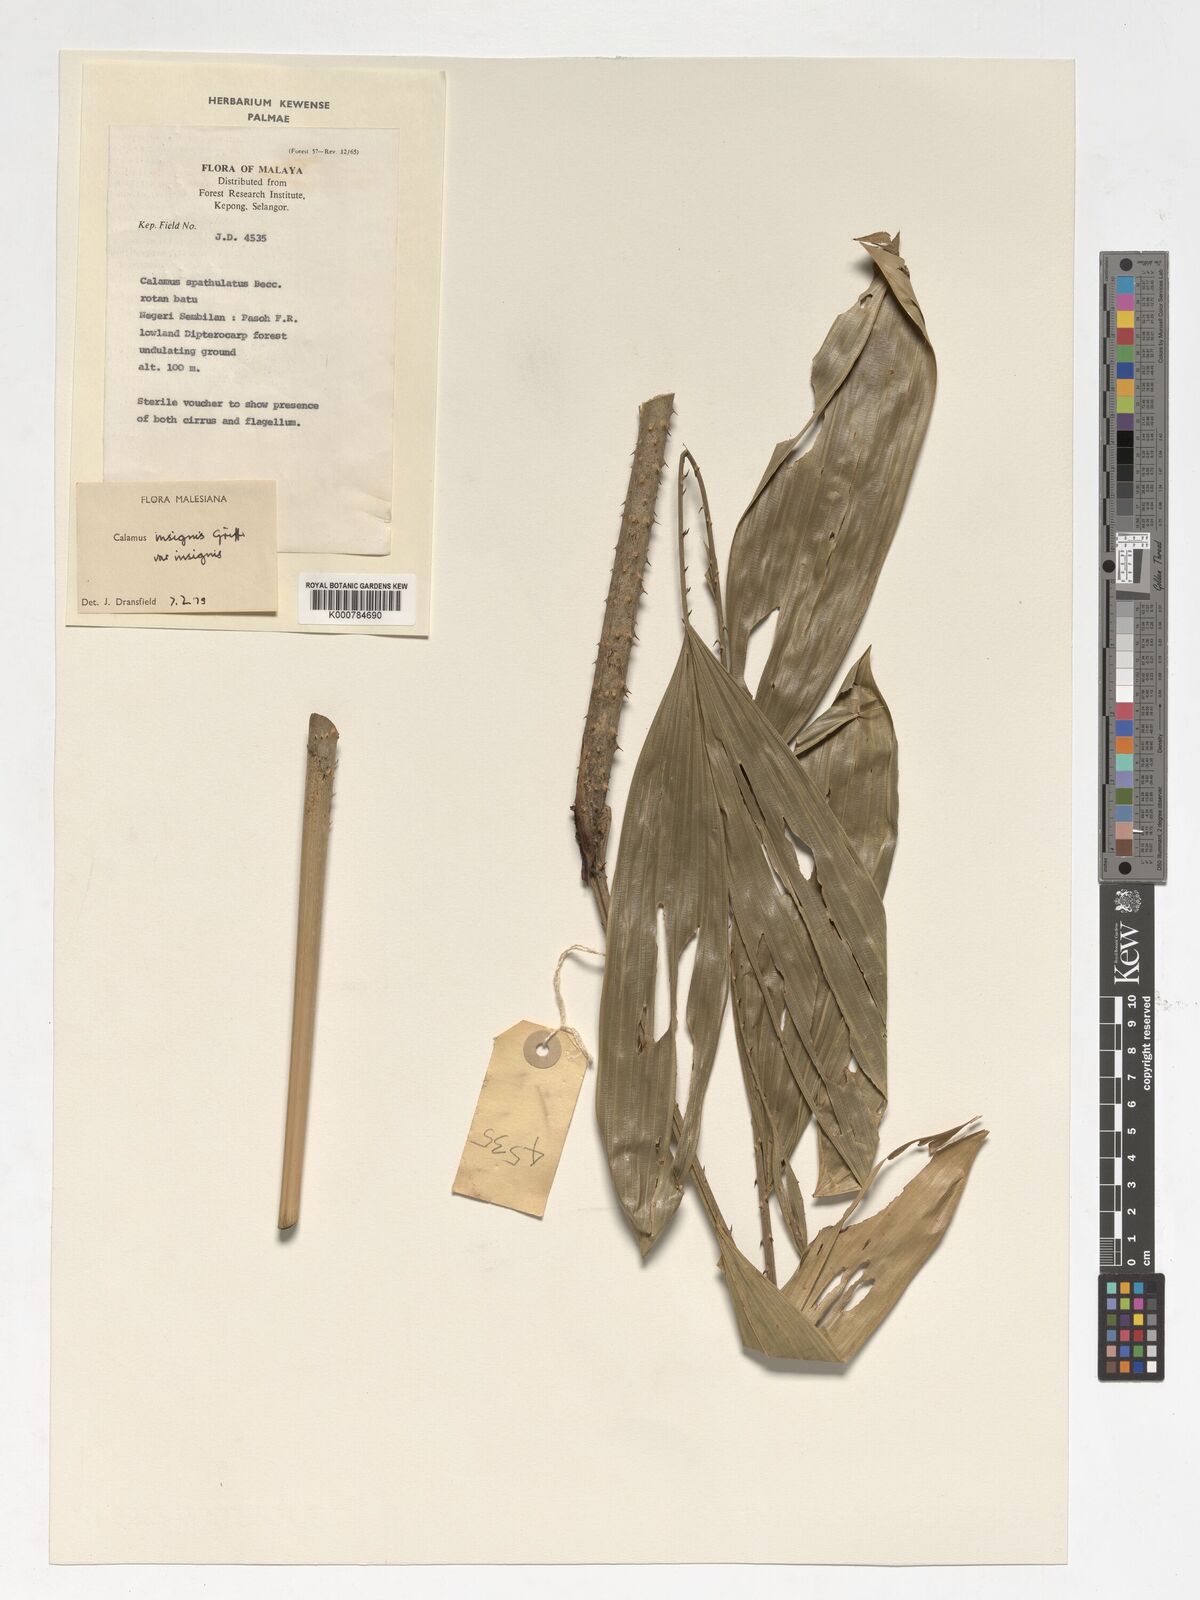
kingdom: Plantae
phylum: Tracheophyta
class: Liliopsida
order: Arecales
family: Arecaceae
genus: Calamus
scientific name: Calamus insignis
